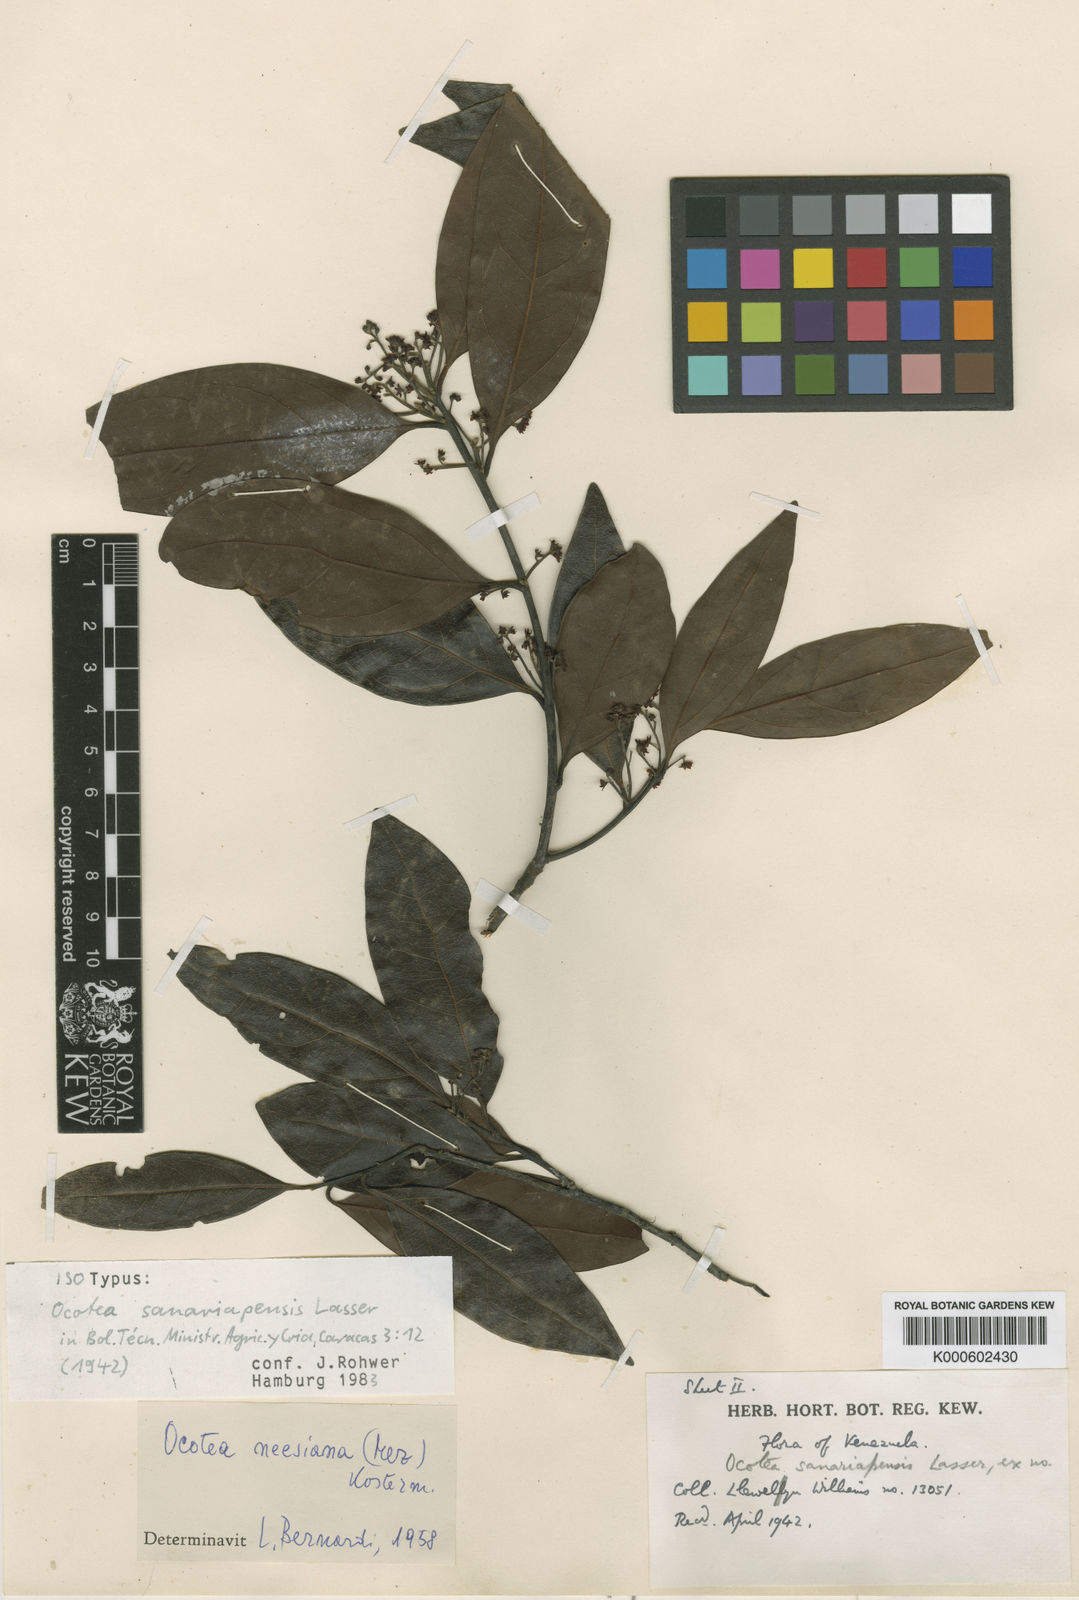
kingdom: Plantae
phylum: Tracheophyta
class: Magnoliopsida
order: Laurales
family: Lauraceae
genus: Ocotea
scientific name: Ocotea sanariapensis
